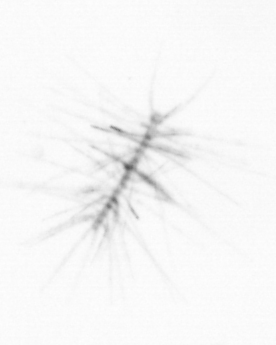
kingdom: Chromista
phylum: Ochrophyta
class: Bacillariophyceae
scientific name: Bacillariophyceae
